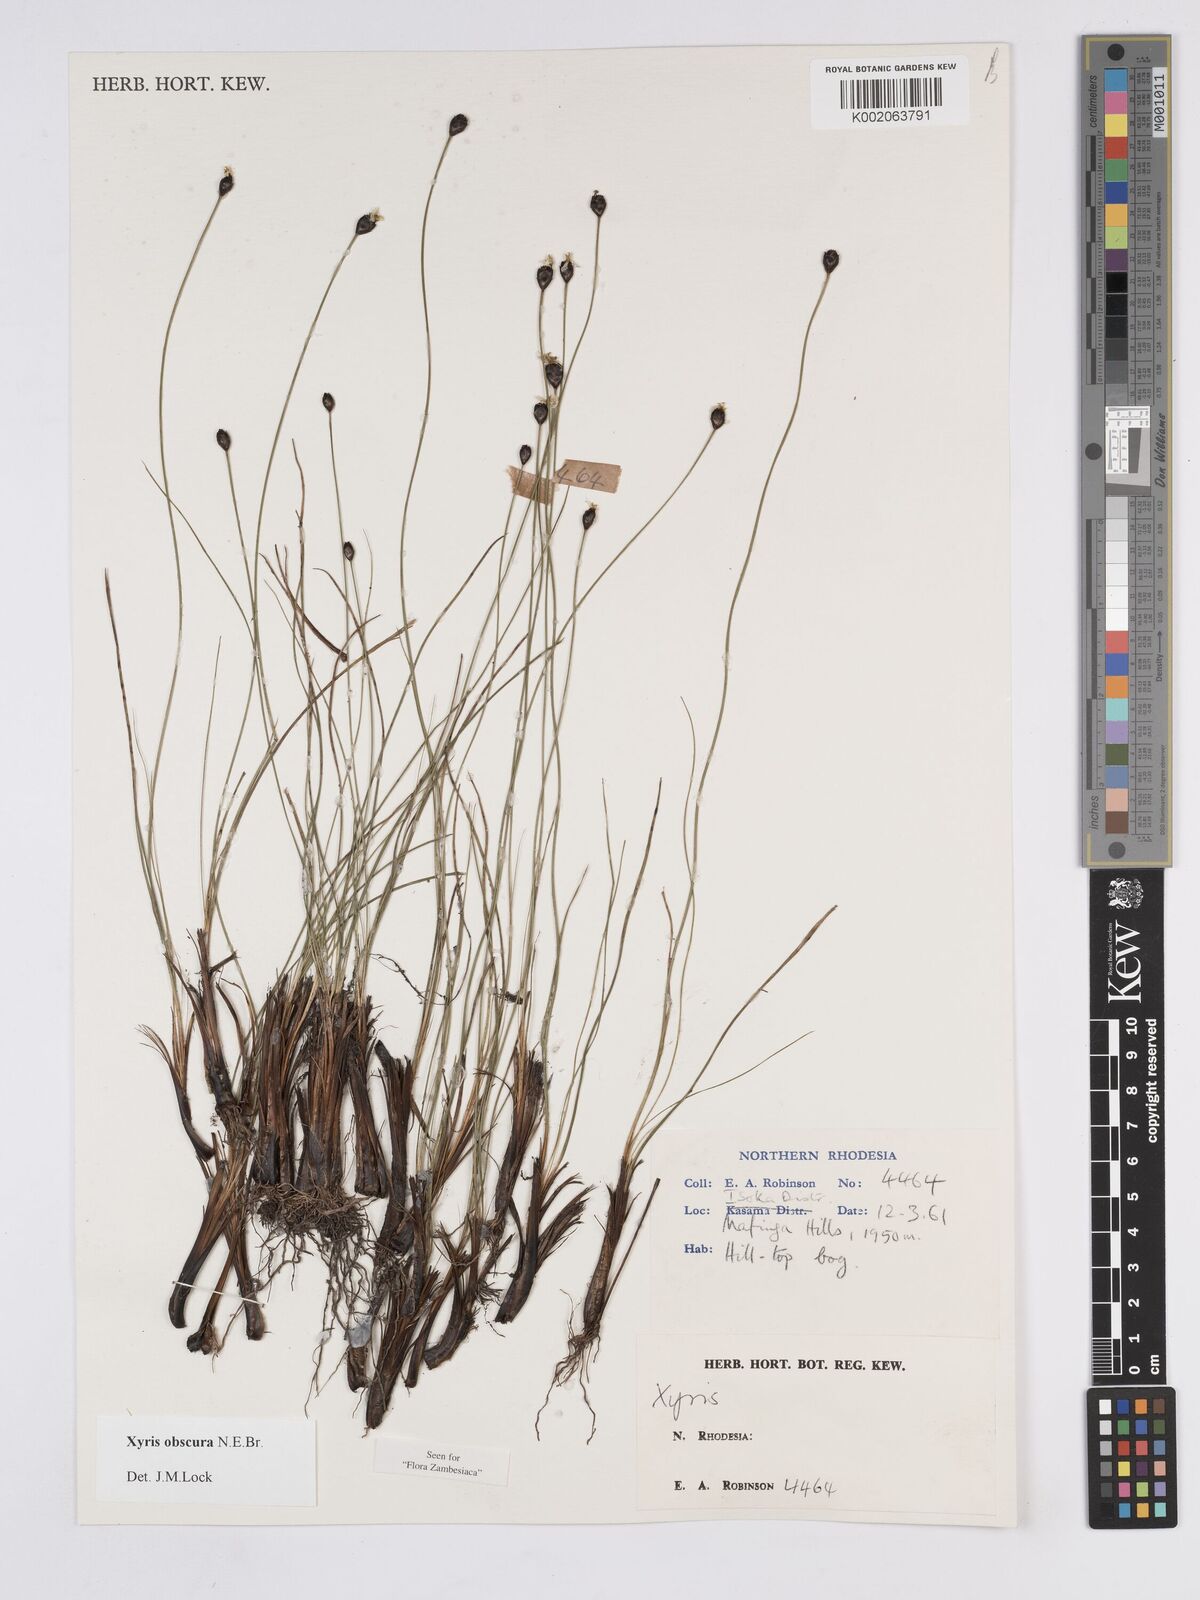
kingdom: Plantae
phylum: Tracheophyta
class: Liliopsida
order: Poales
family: Xyridaceae
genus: Xyris
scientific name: Xyris obscura
